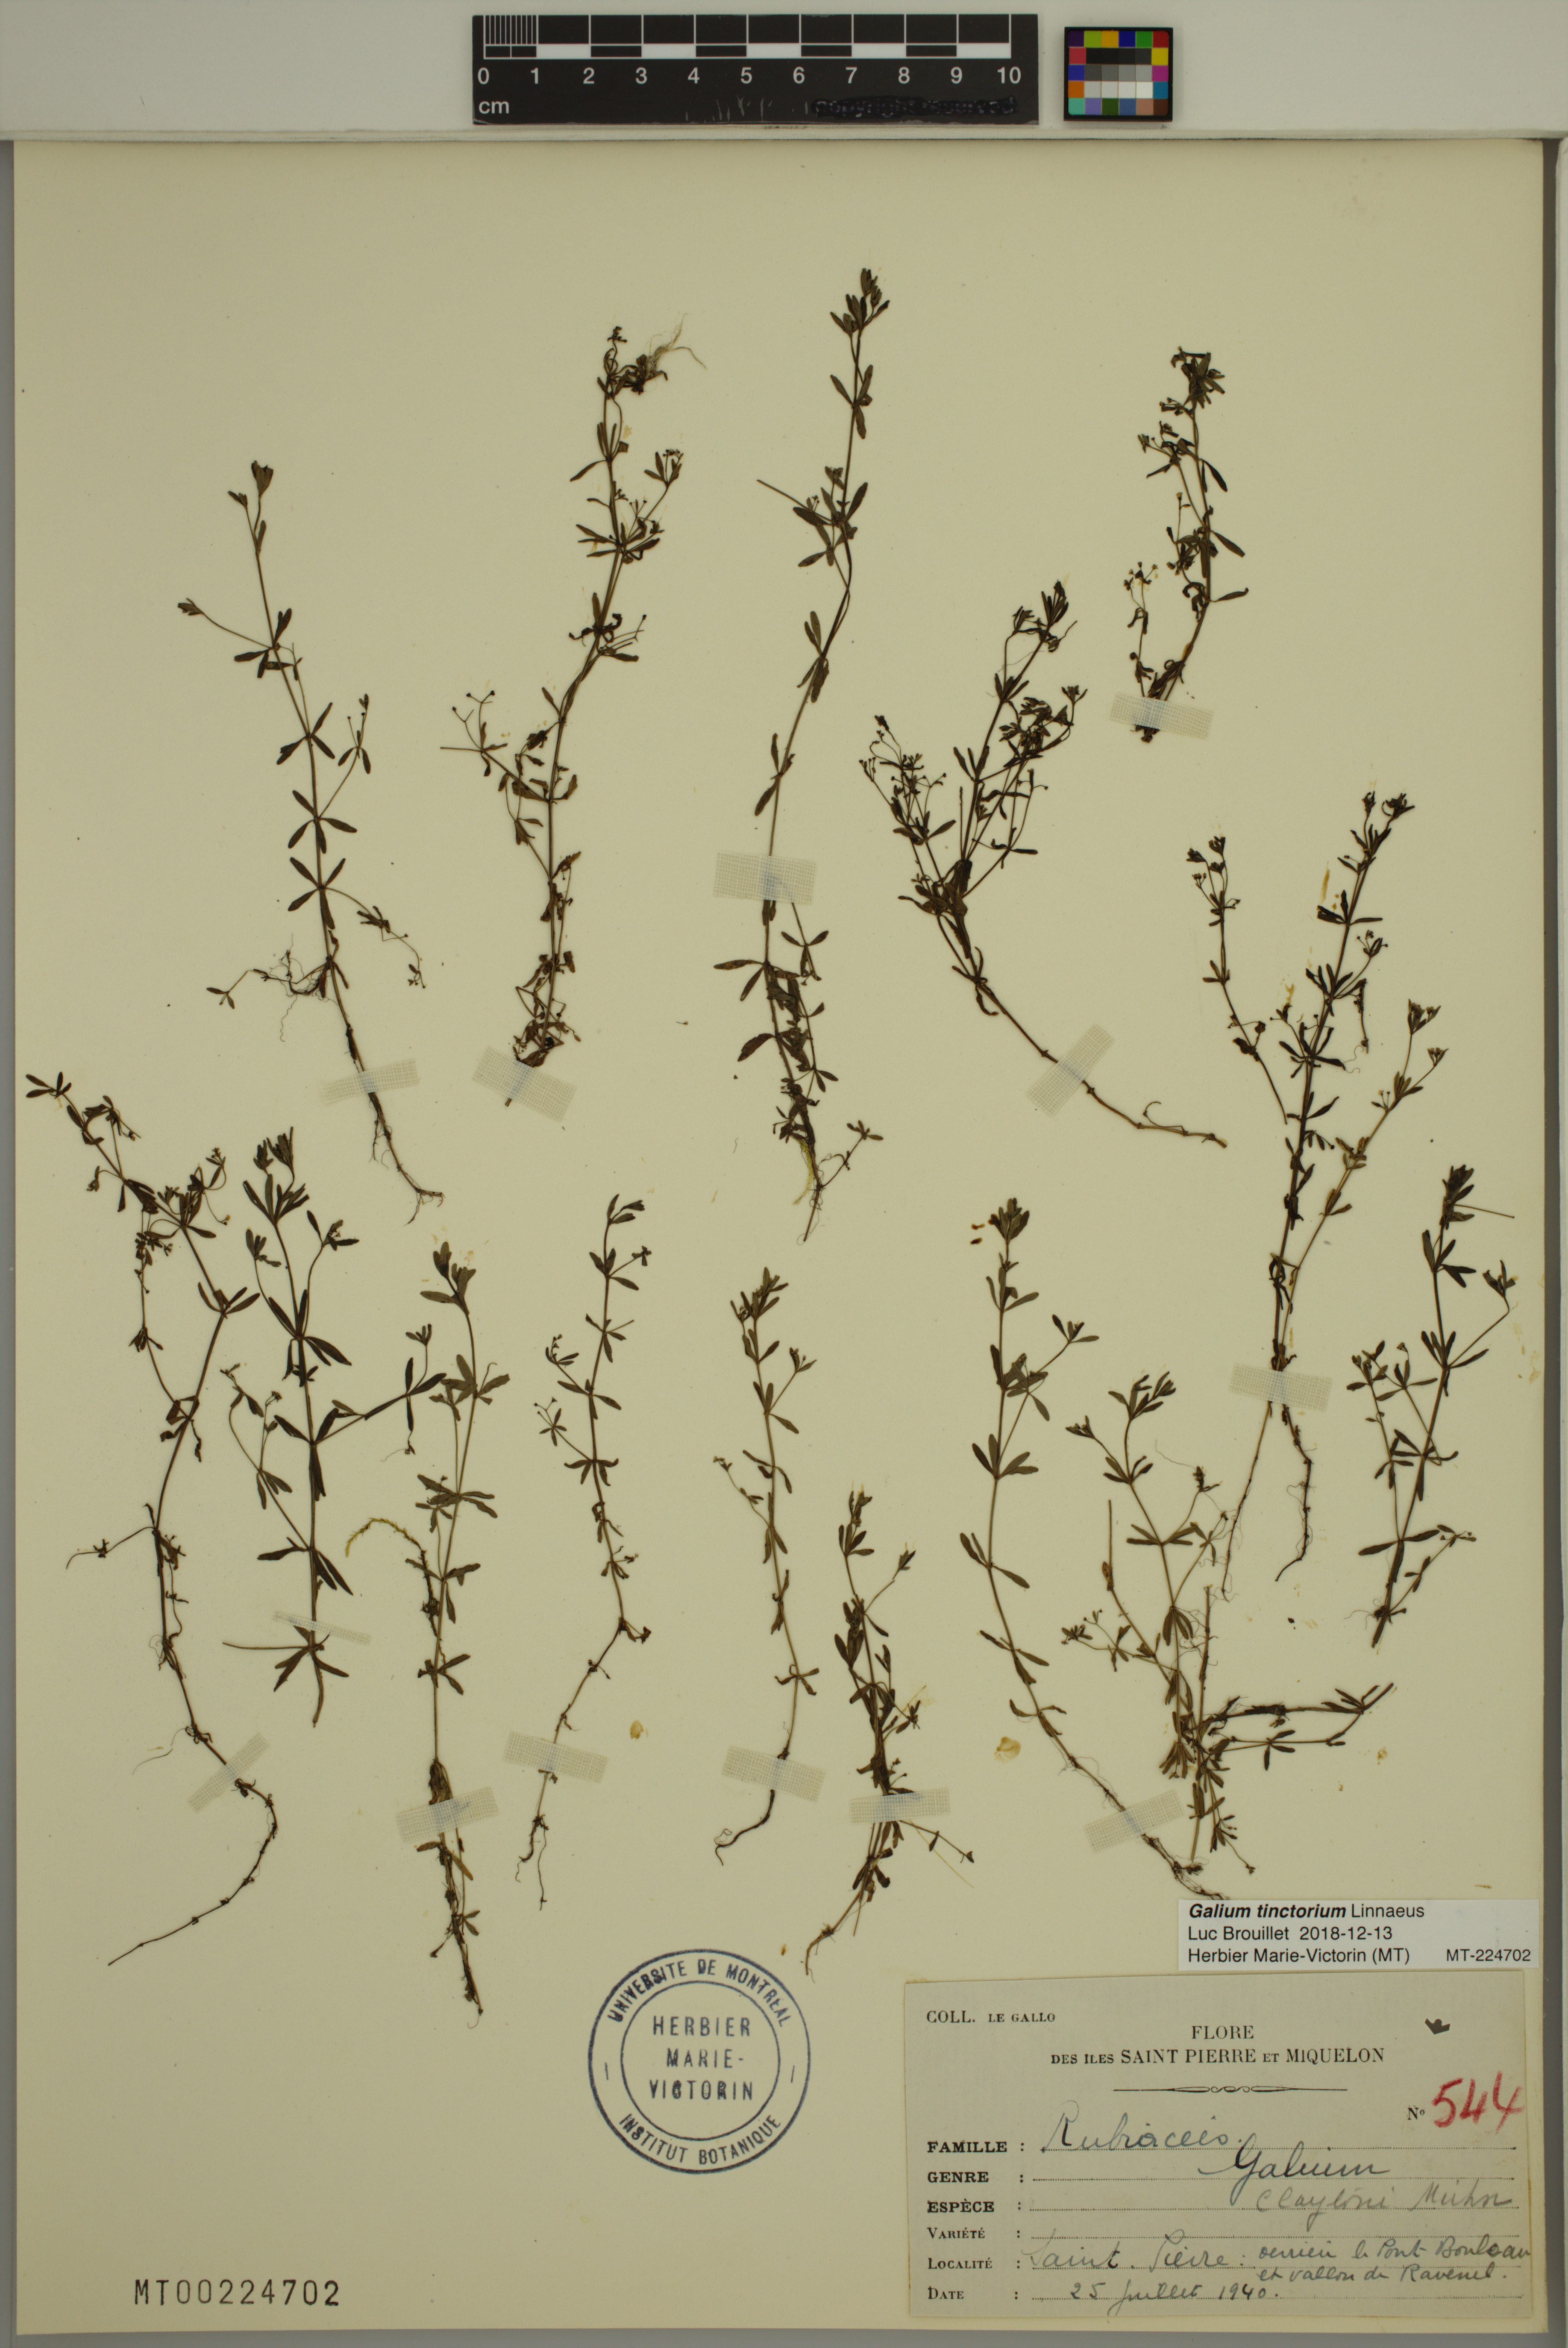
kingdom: Plantae
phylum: Tracheophyta
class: Magnoliopsida
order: Gentianales
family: Rubiaceae
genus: Galium
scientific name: Galium tinctorium
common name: Bedstraw
